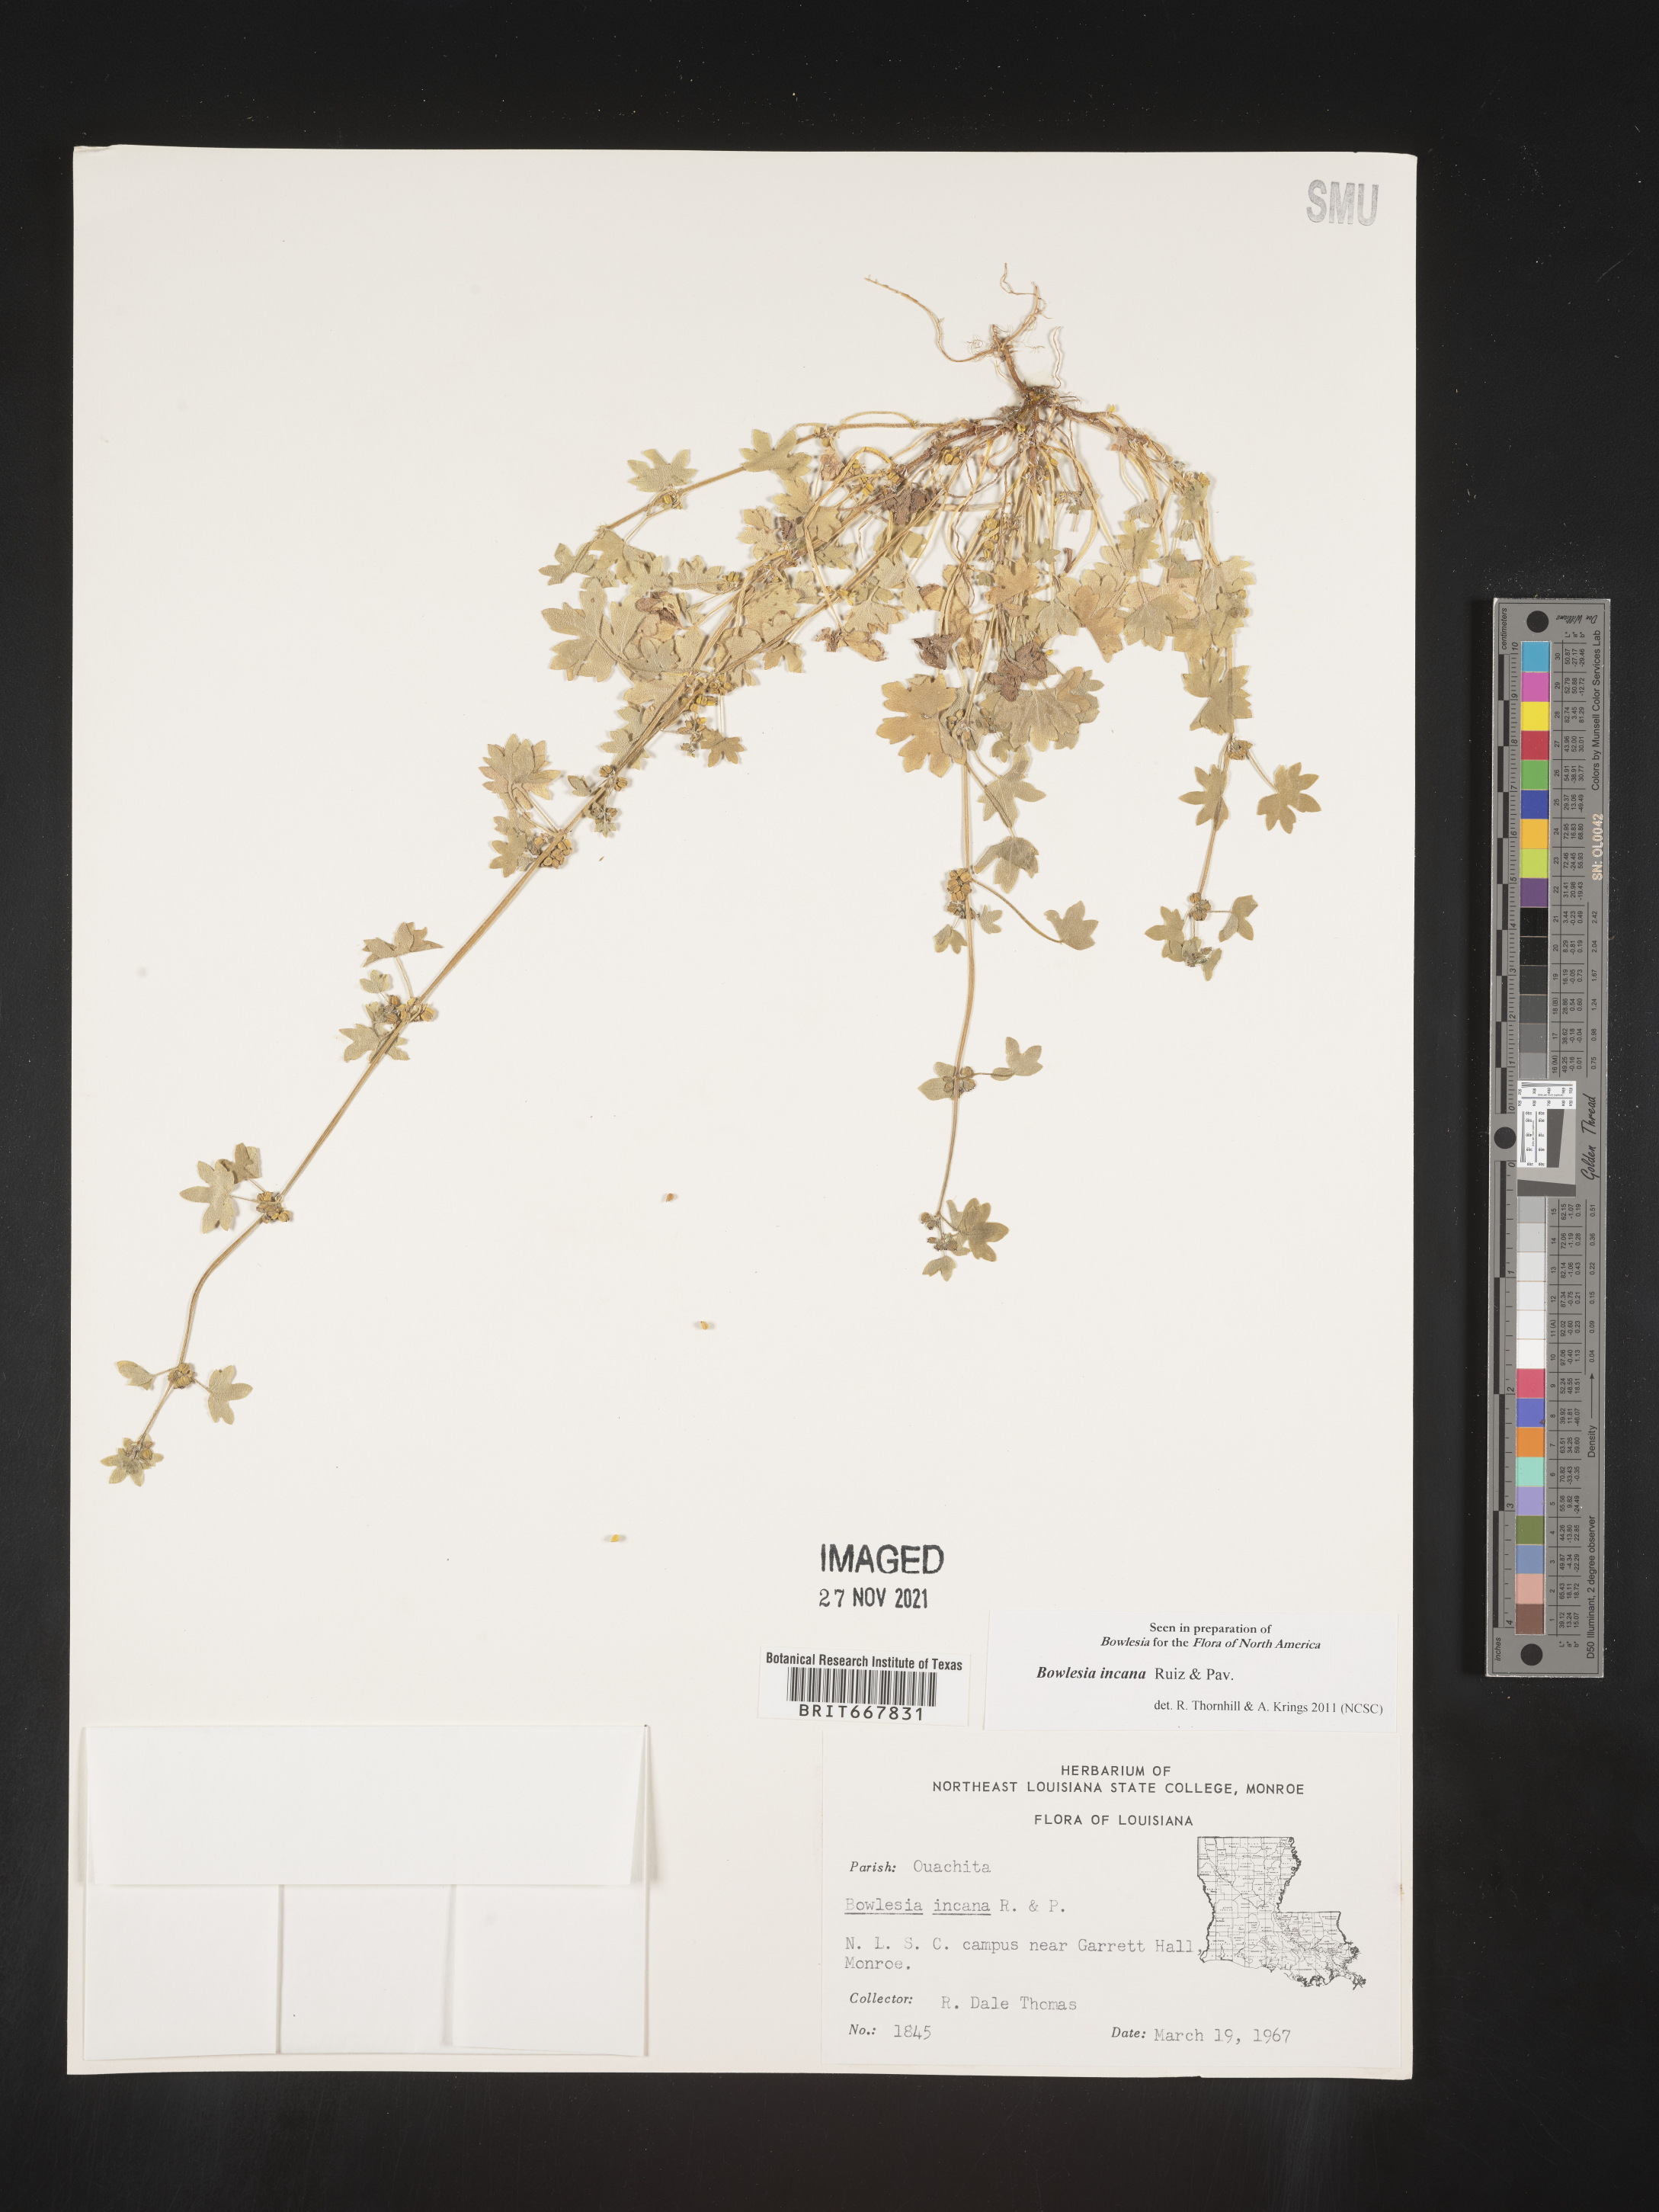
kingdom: Plantae
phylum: Tracheophyta
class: Magnoliopsida
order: Apiales
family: Apiaceae
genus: Bowlesia
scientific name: Bowlesia
